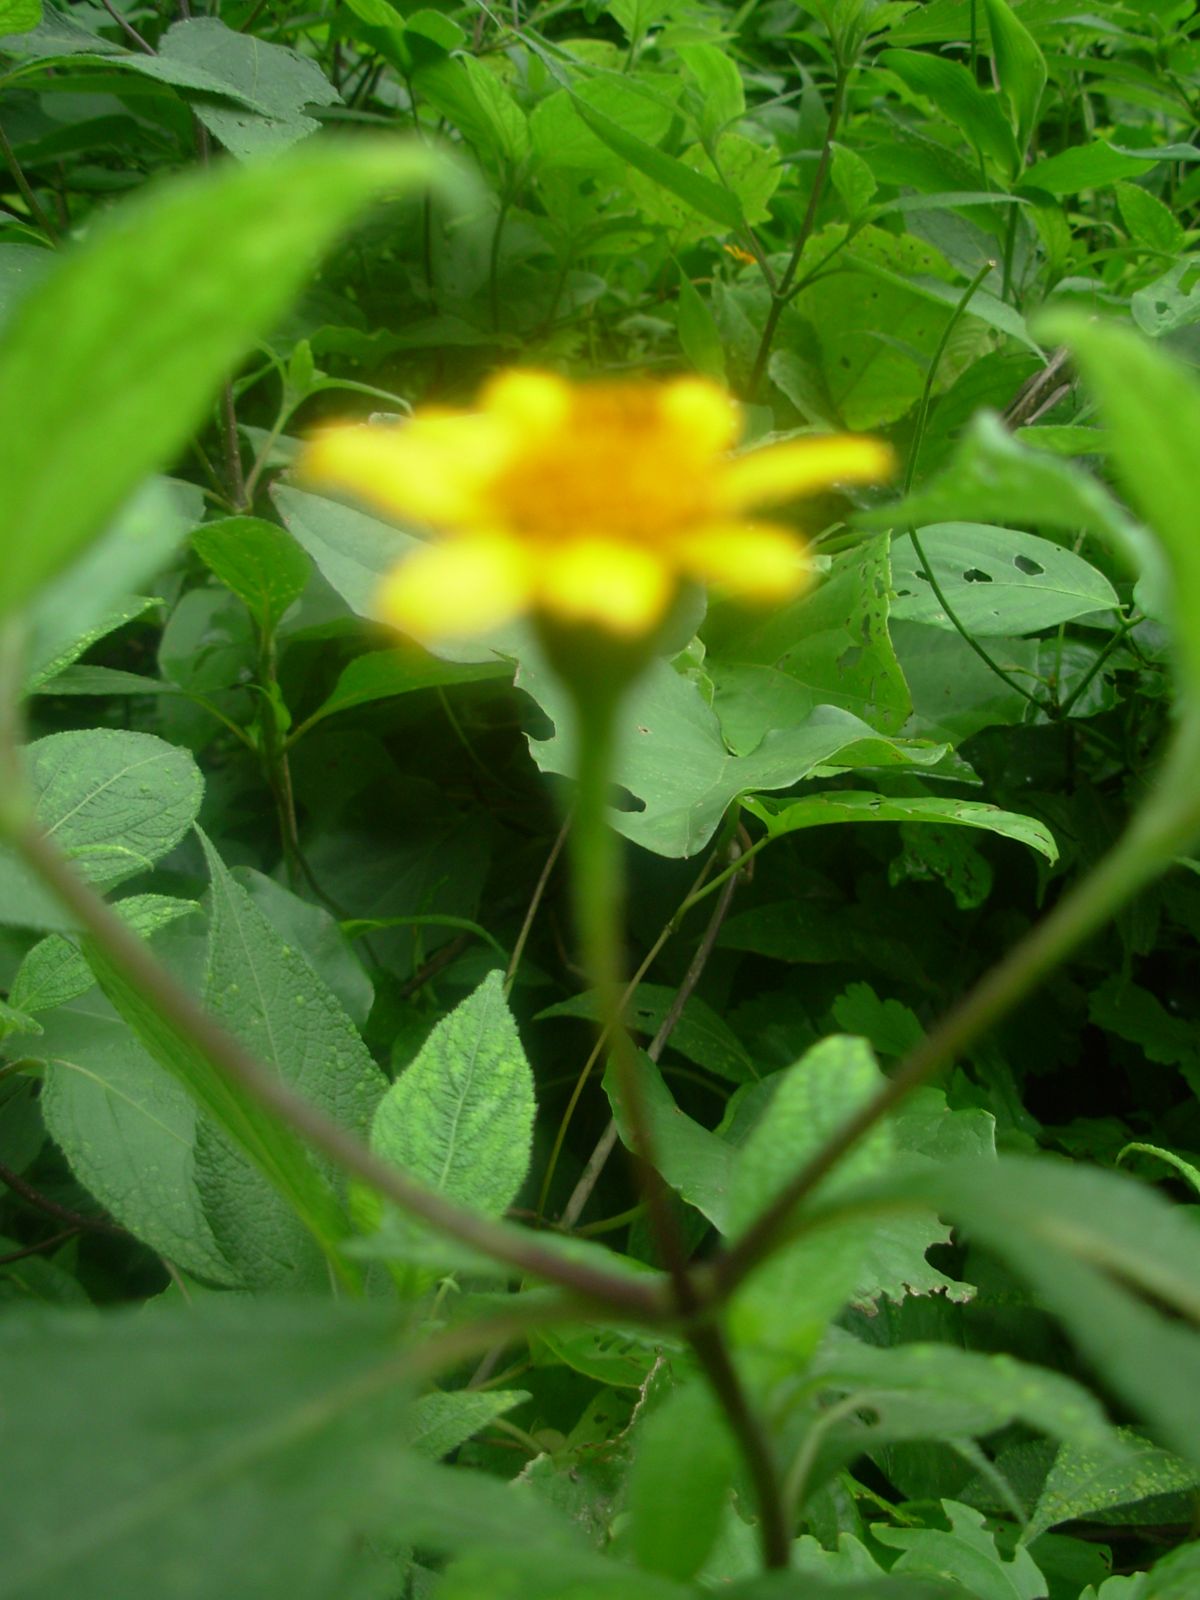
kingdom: Plantae
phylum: Tracheophyta
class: Magnoliopsida
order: Asterales
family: Asteraceae
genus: Lasianthaea
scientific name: Lasianthaea fruticosa
